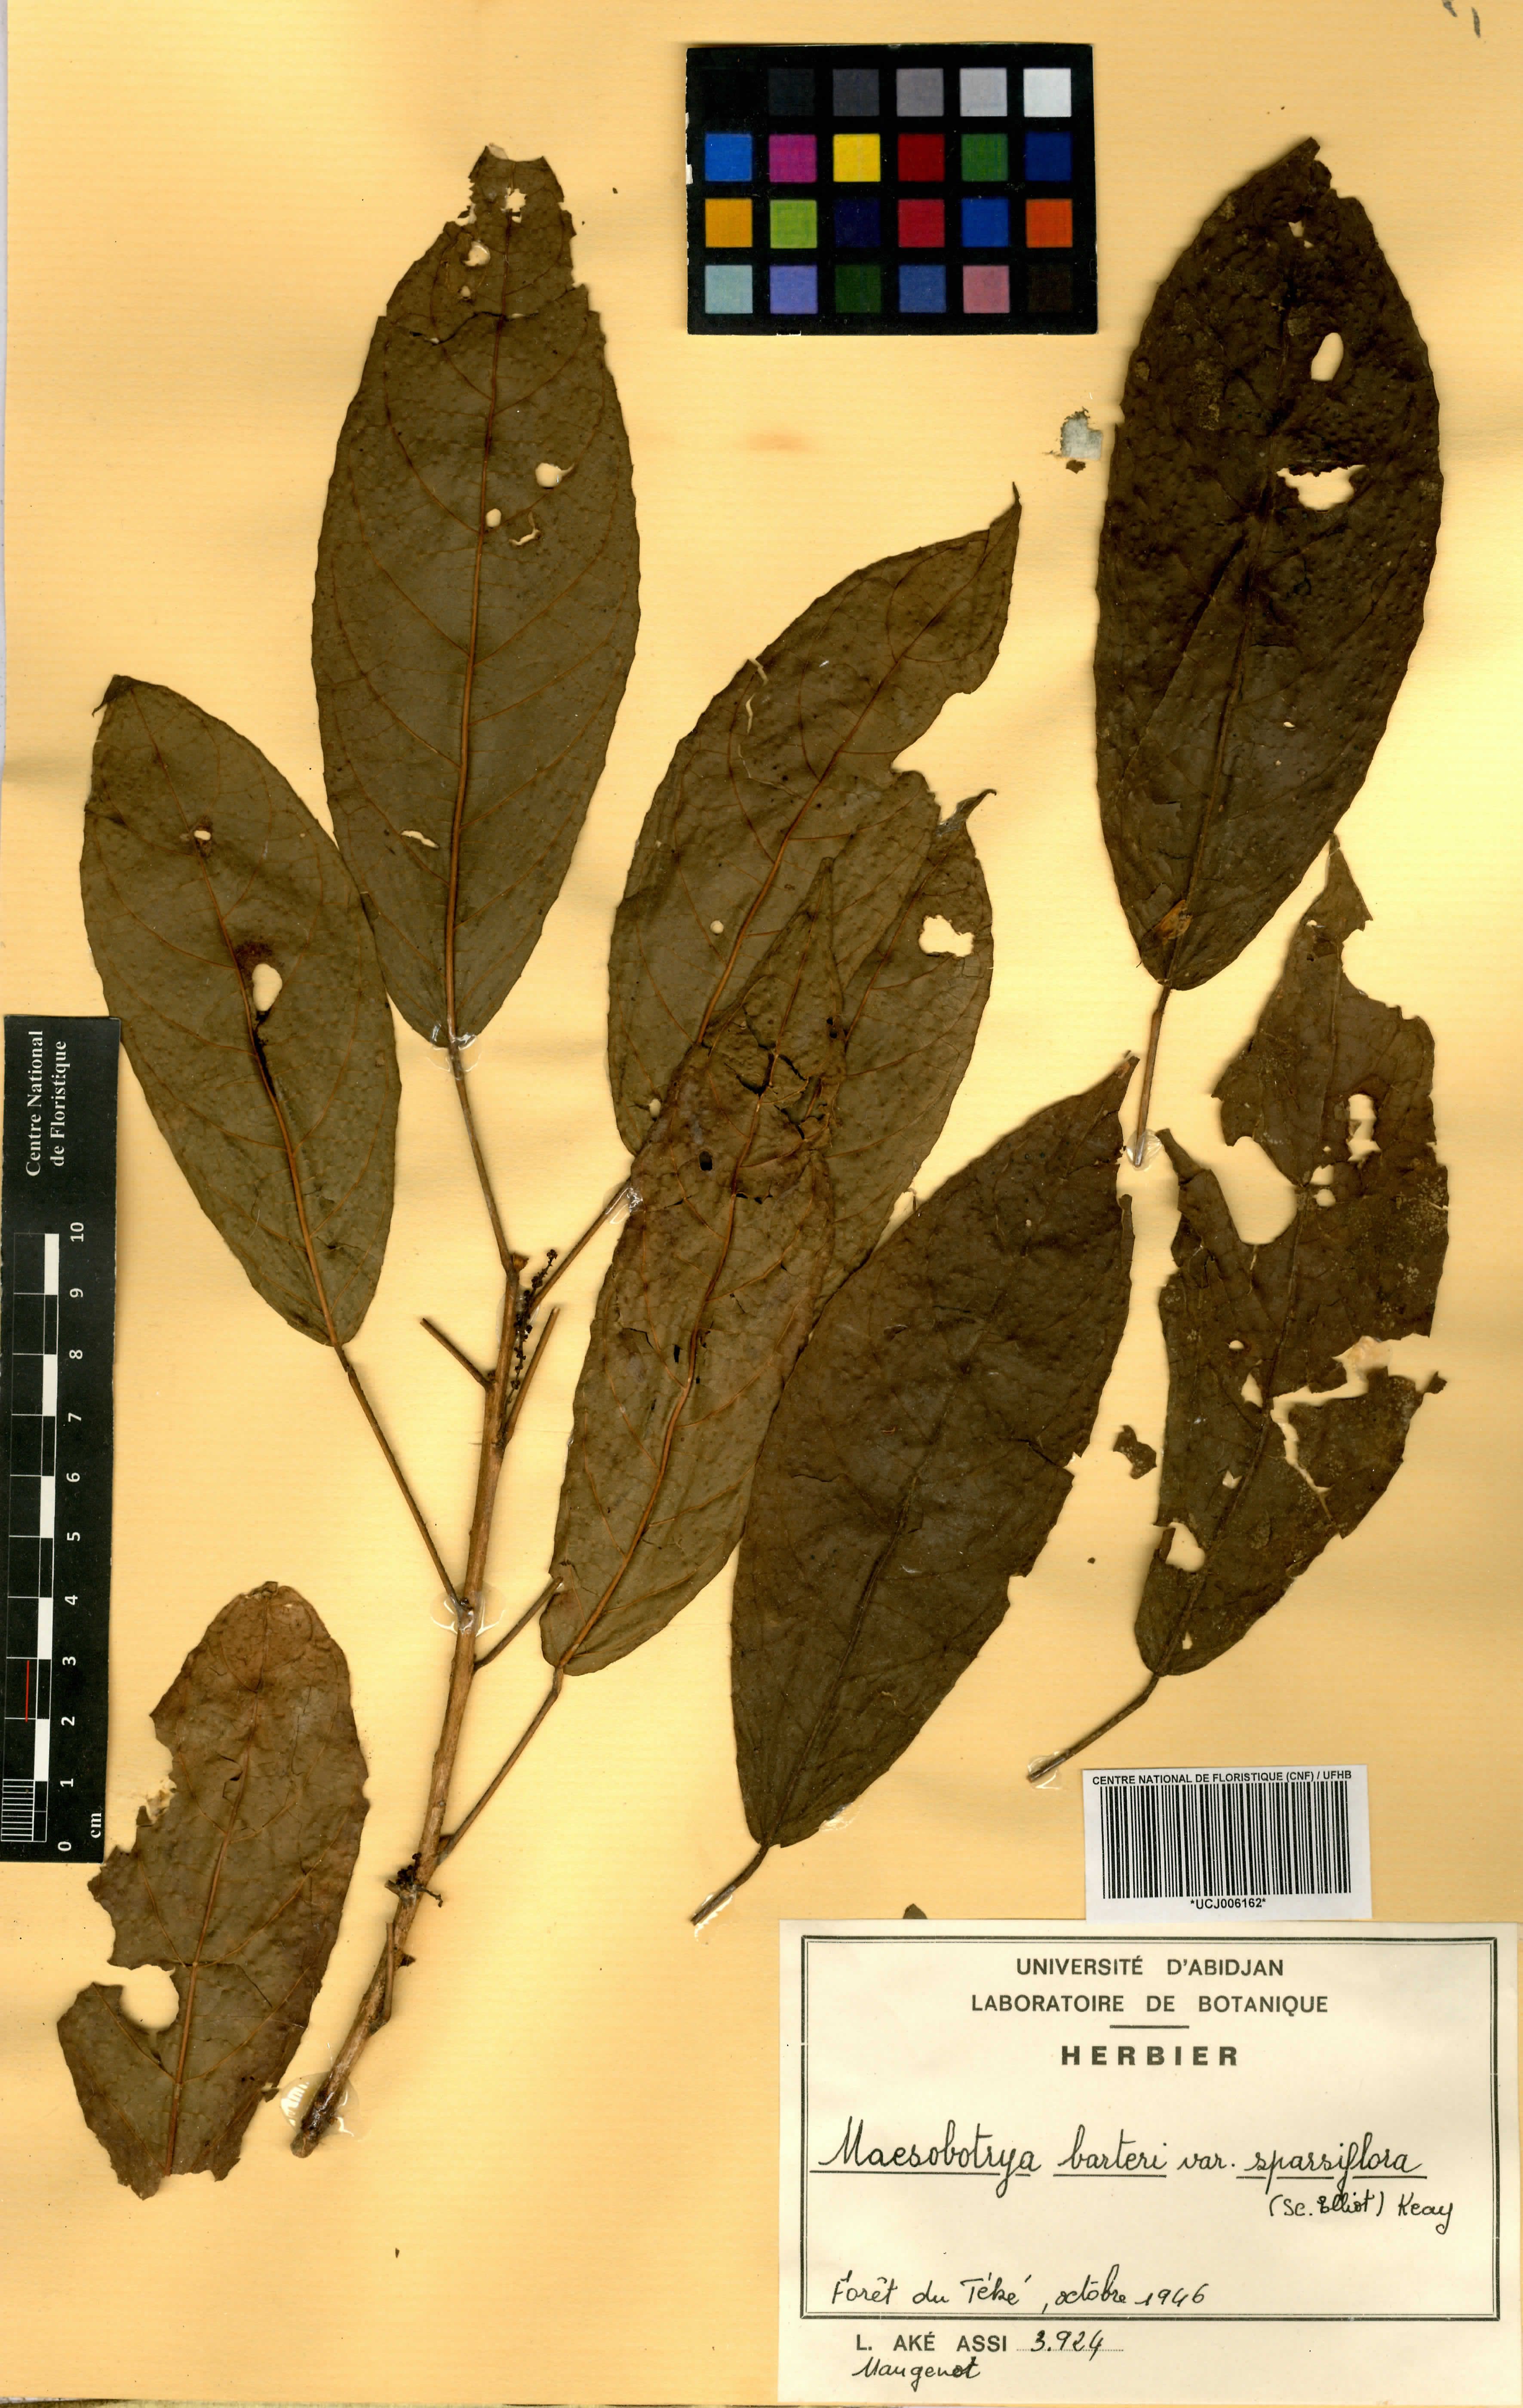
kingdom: Plantae
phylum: Tracheophyta
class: Magnoliopsida
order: Malpighiales
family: Phyllanthaceae
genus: Maesobotrya
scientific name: Maesobotrya barteri
